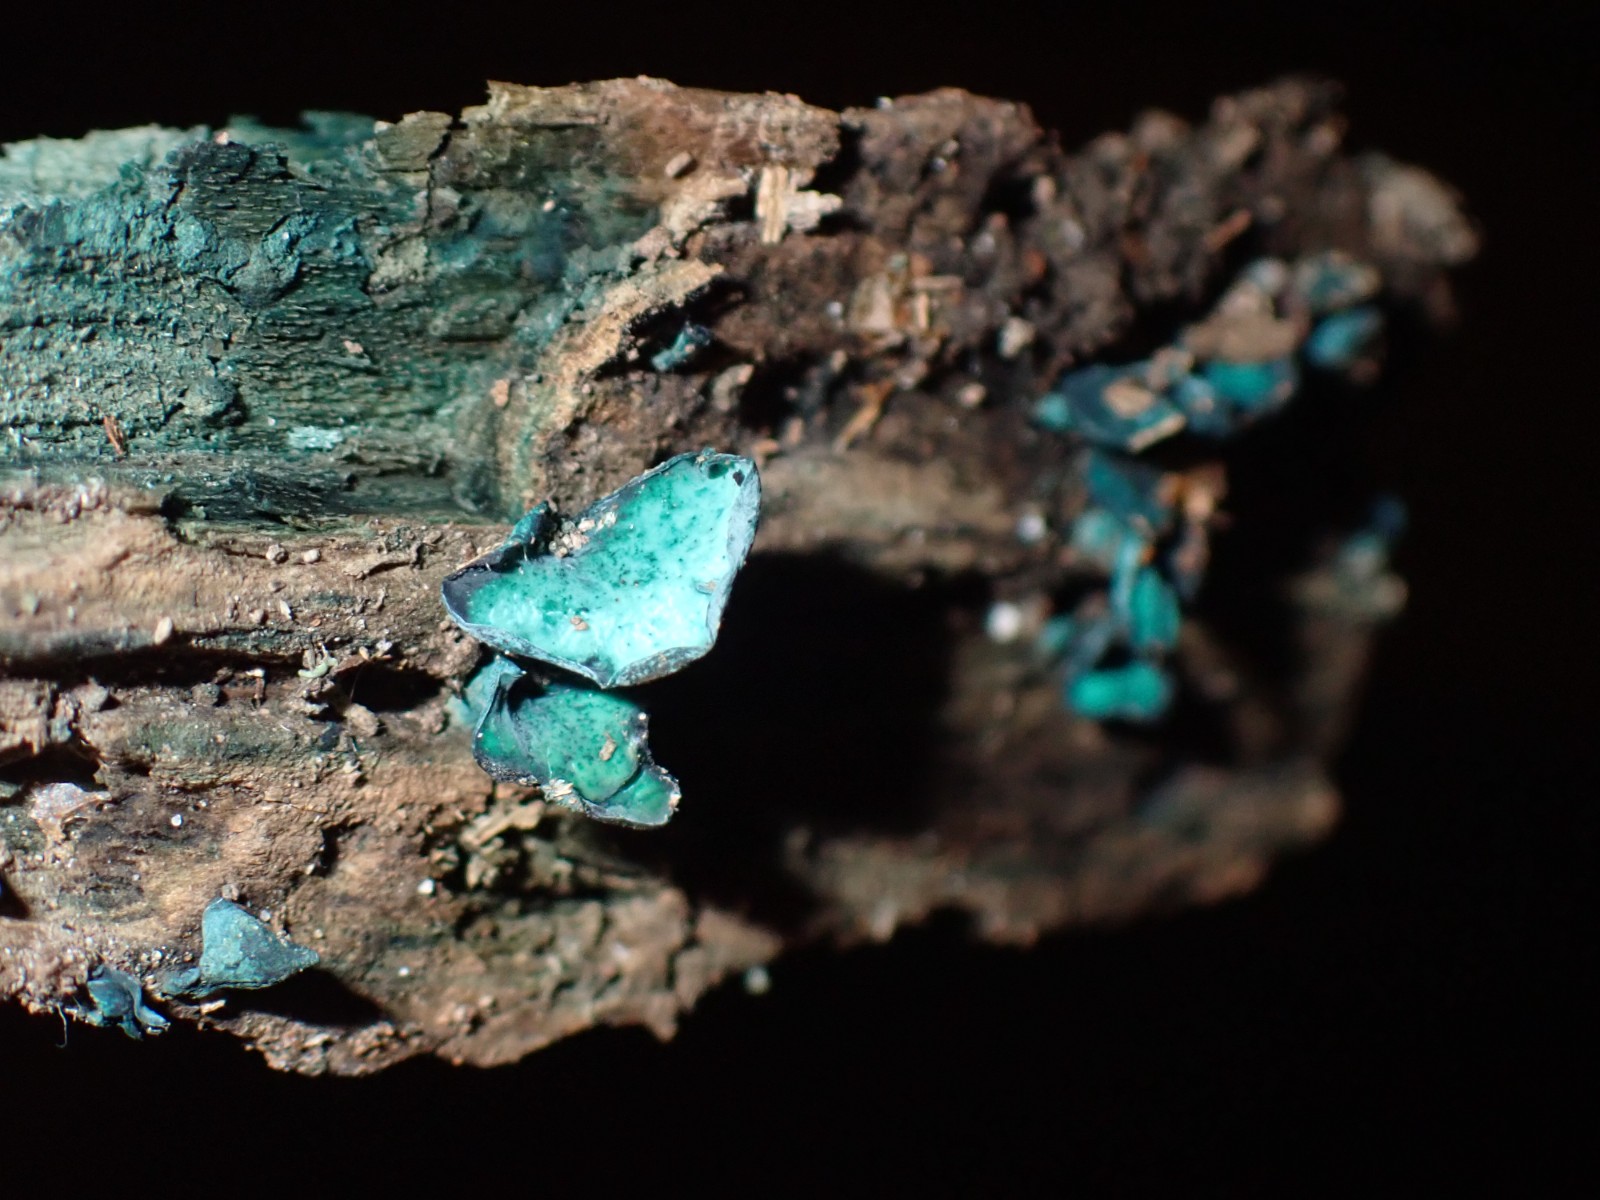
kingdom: Fungi
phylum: Ascomycota
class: Leotiomycetes
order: Helotiales
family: Chlorociboriaceae
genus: Chlorociboria
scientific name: Chlorociboria aeruginascens
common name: almindelig grønskive
